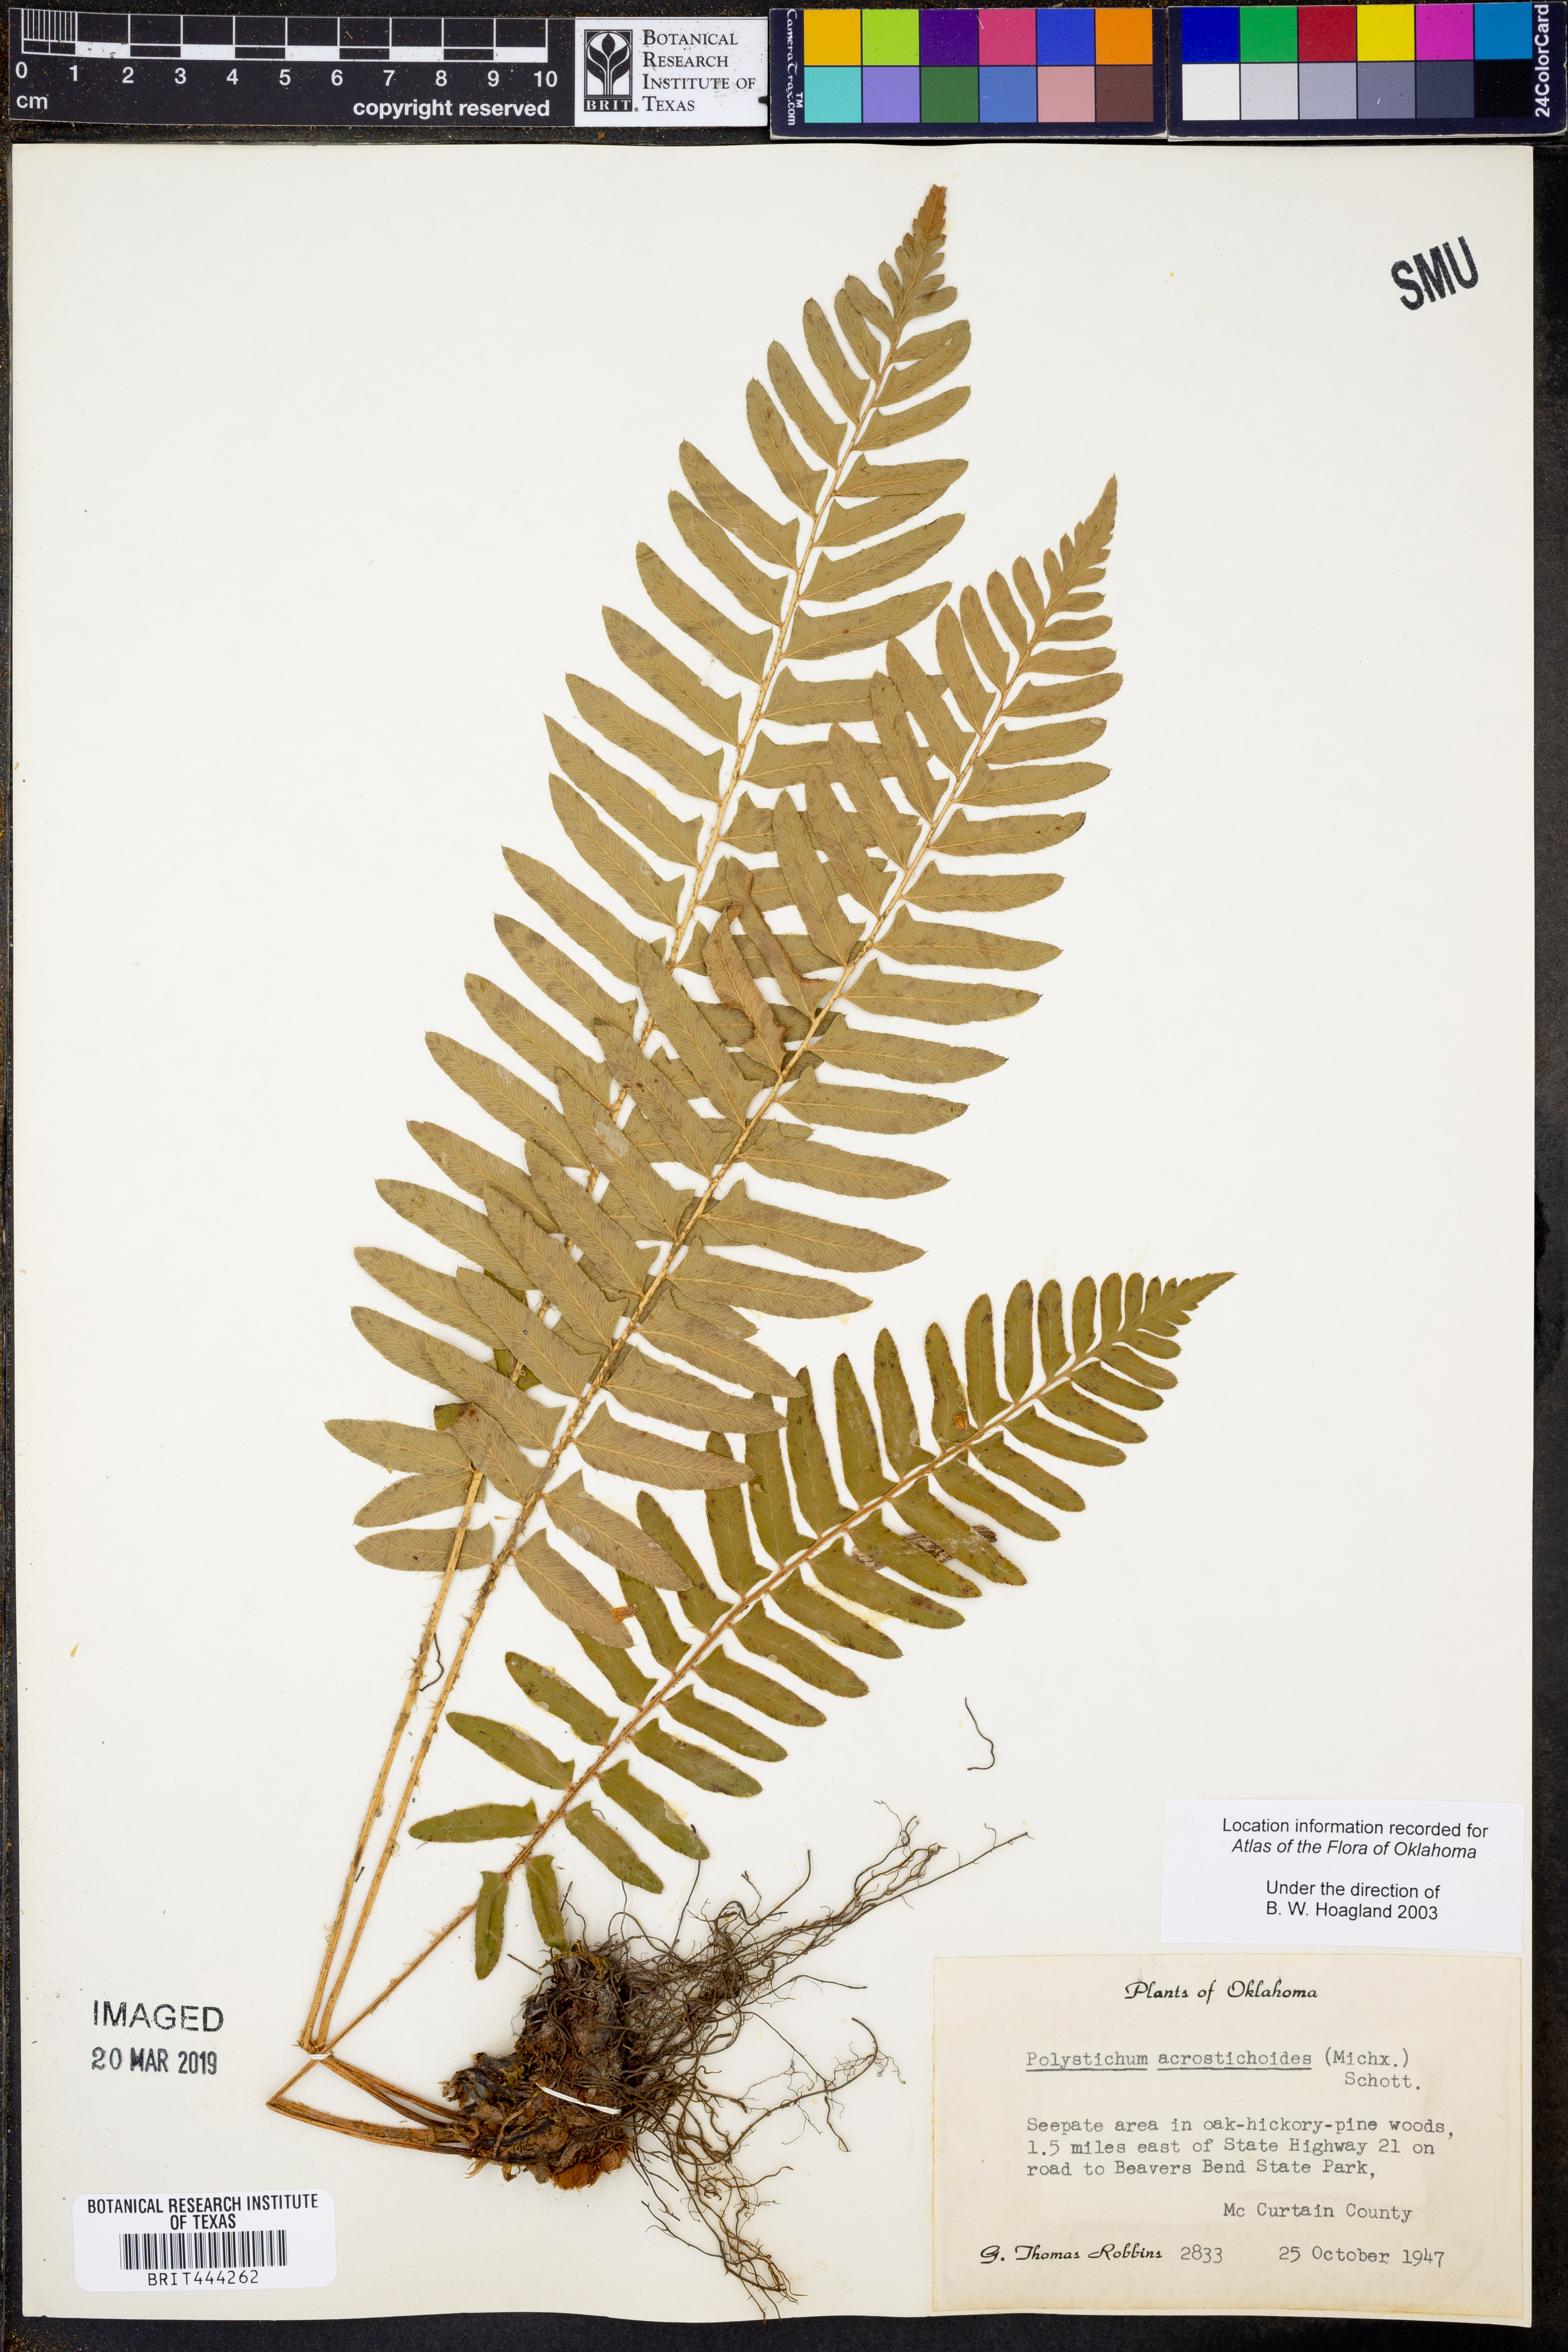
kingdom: Plantae
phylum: Tracheophyta
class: Polypodiopsida
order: Polypodiales
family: Dryopteridaceae
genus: Polystichum
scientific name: Polystichum acrostichoides
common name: Christmas fern
